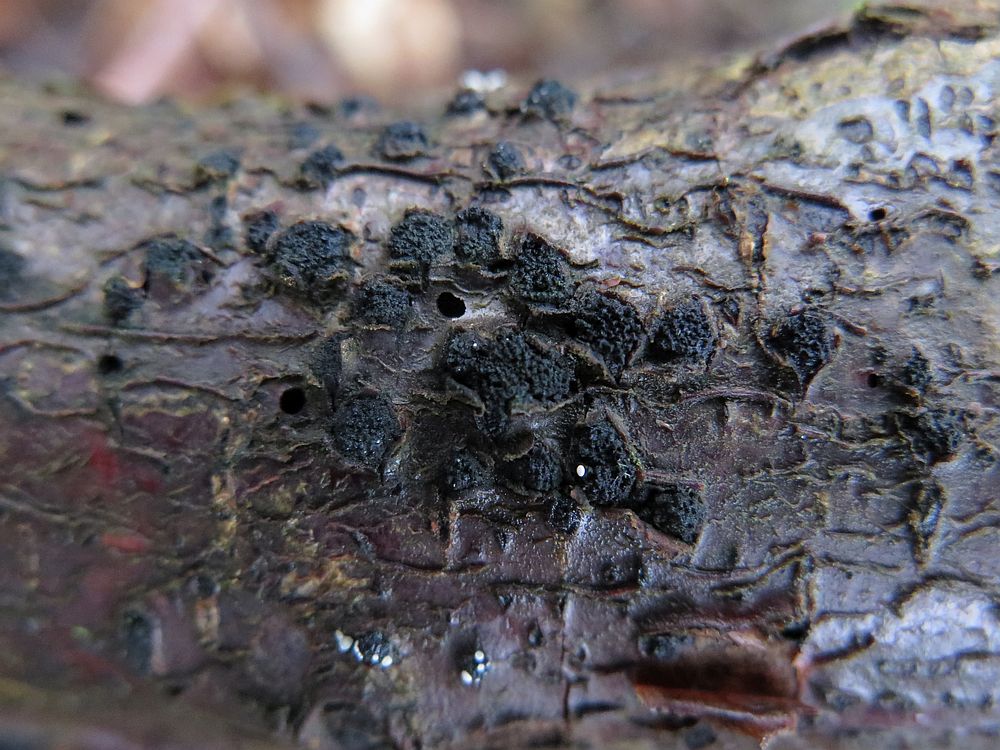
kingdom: Fungi
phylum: Ascomycota
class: Sordariomycetes
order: Xylariales
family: Diatrypaceae
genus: Eutypella
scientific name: Eutypella prunastri
